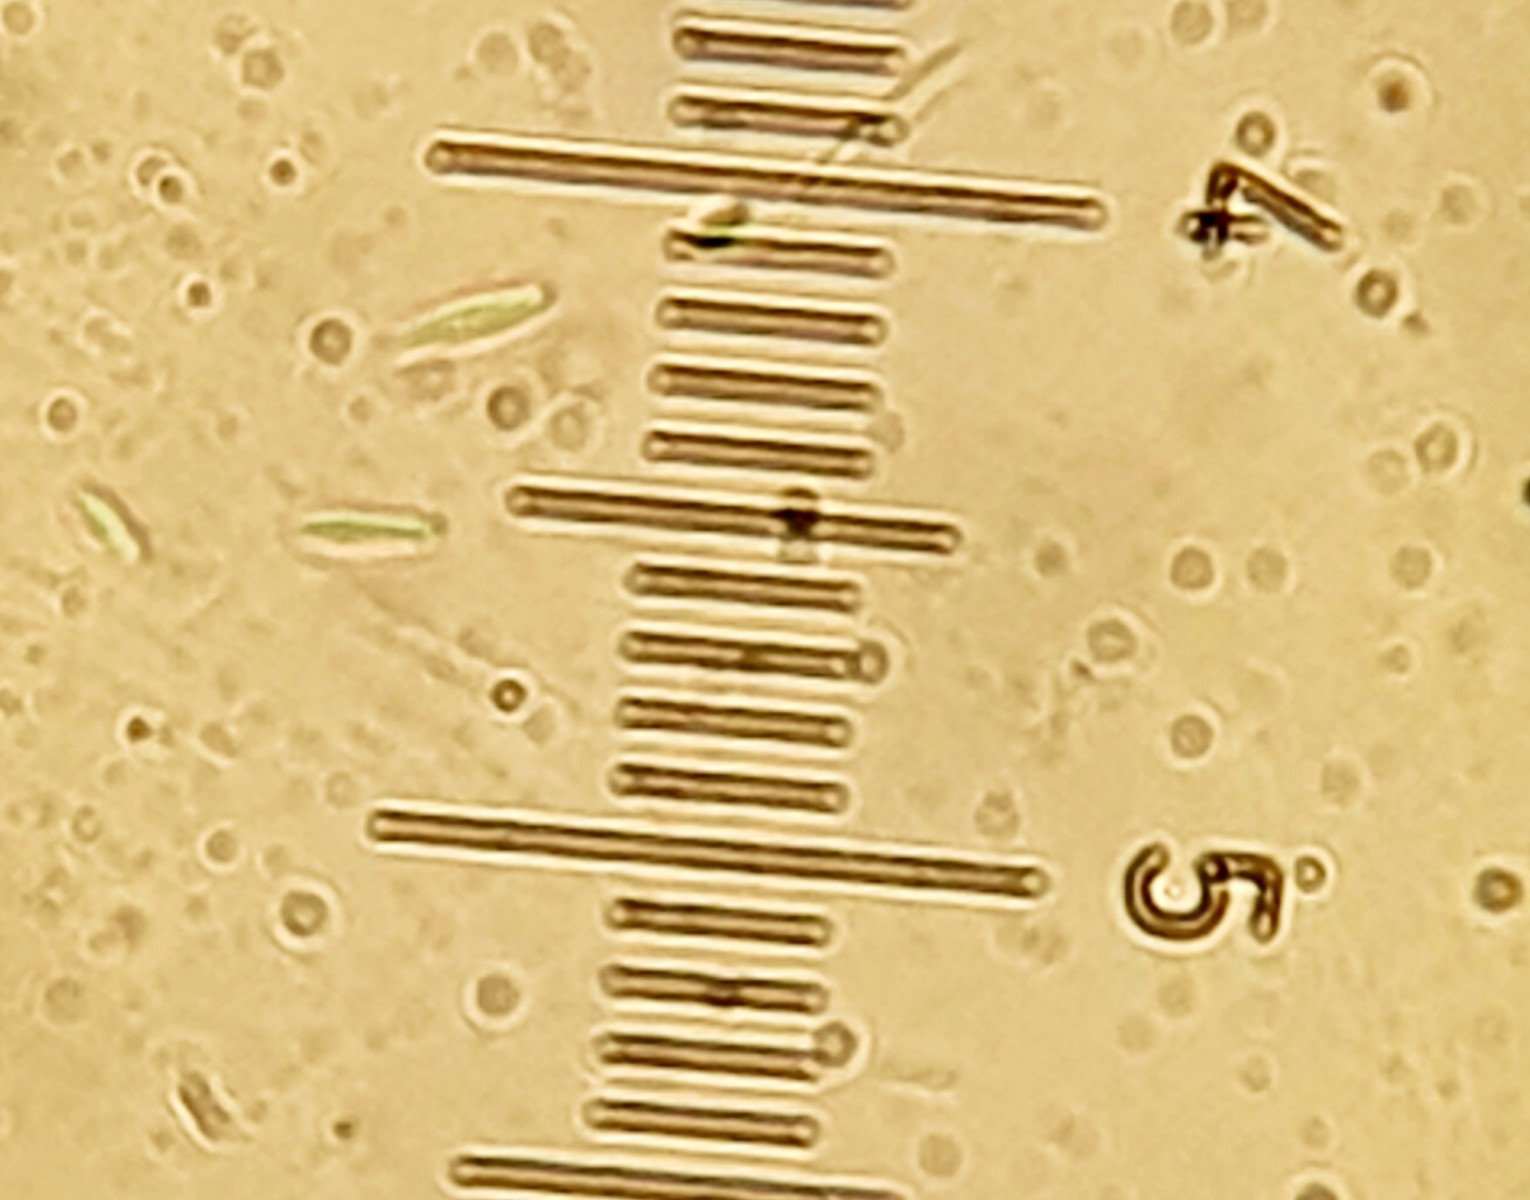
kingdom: Fungi
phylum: Ascomycota
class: Leotiomycetes
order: Helotiales
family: Lachnaceae
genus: Lachnum
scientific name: Lachnum
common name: frynseskive
